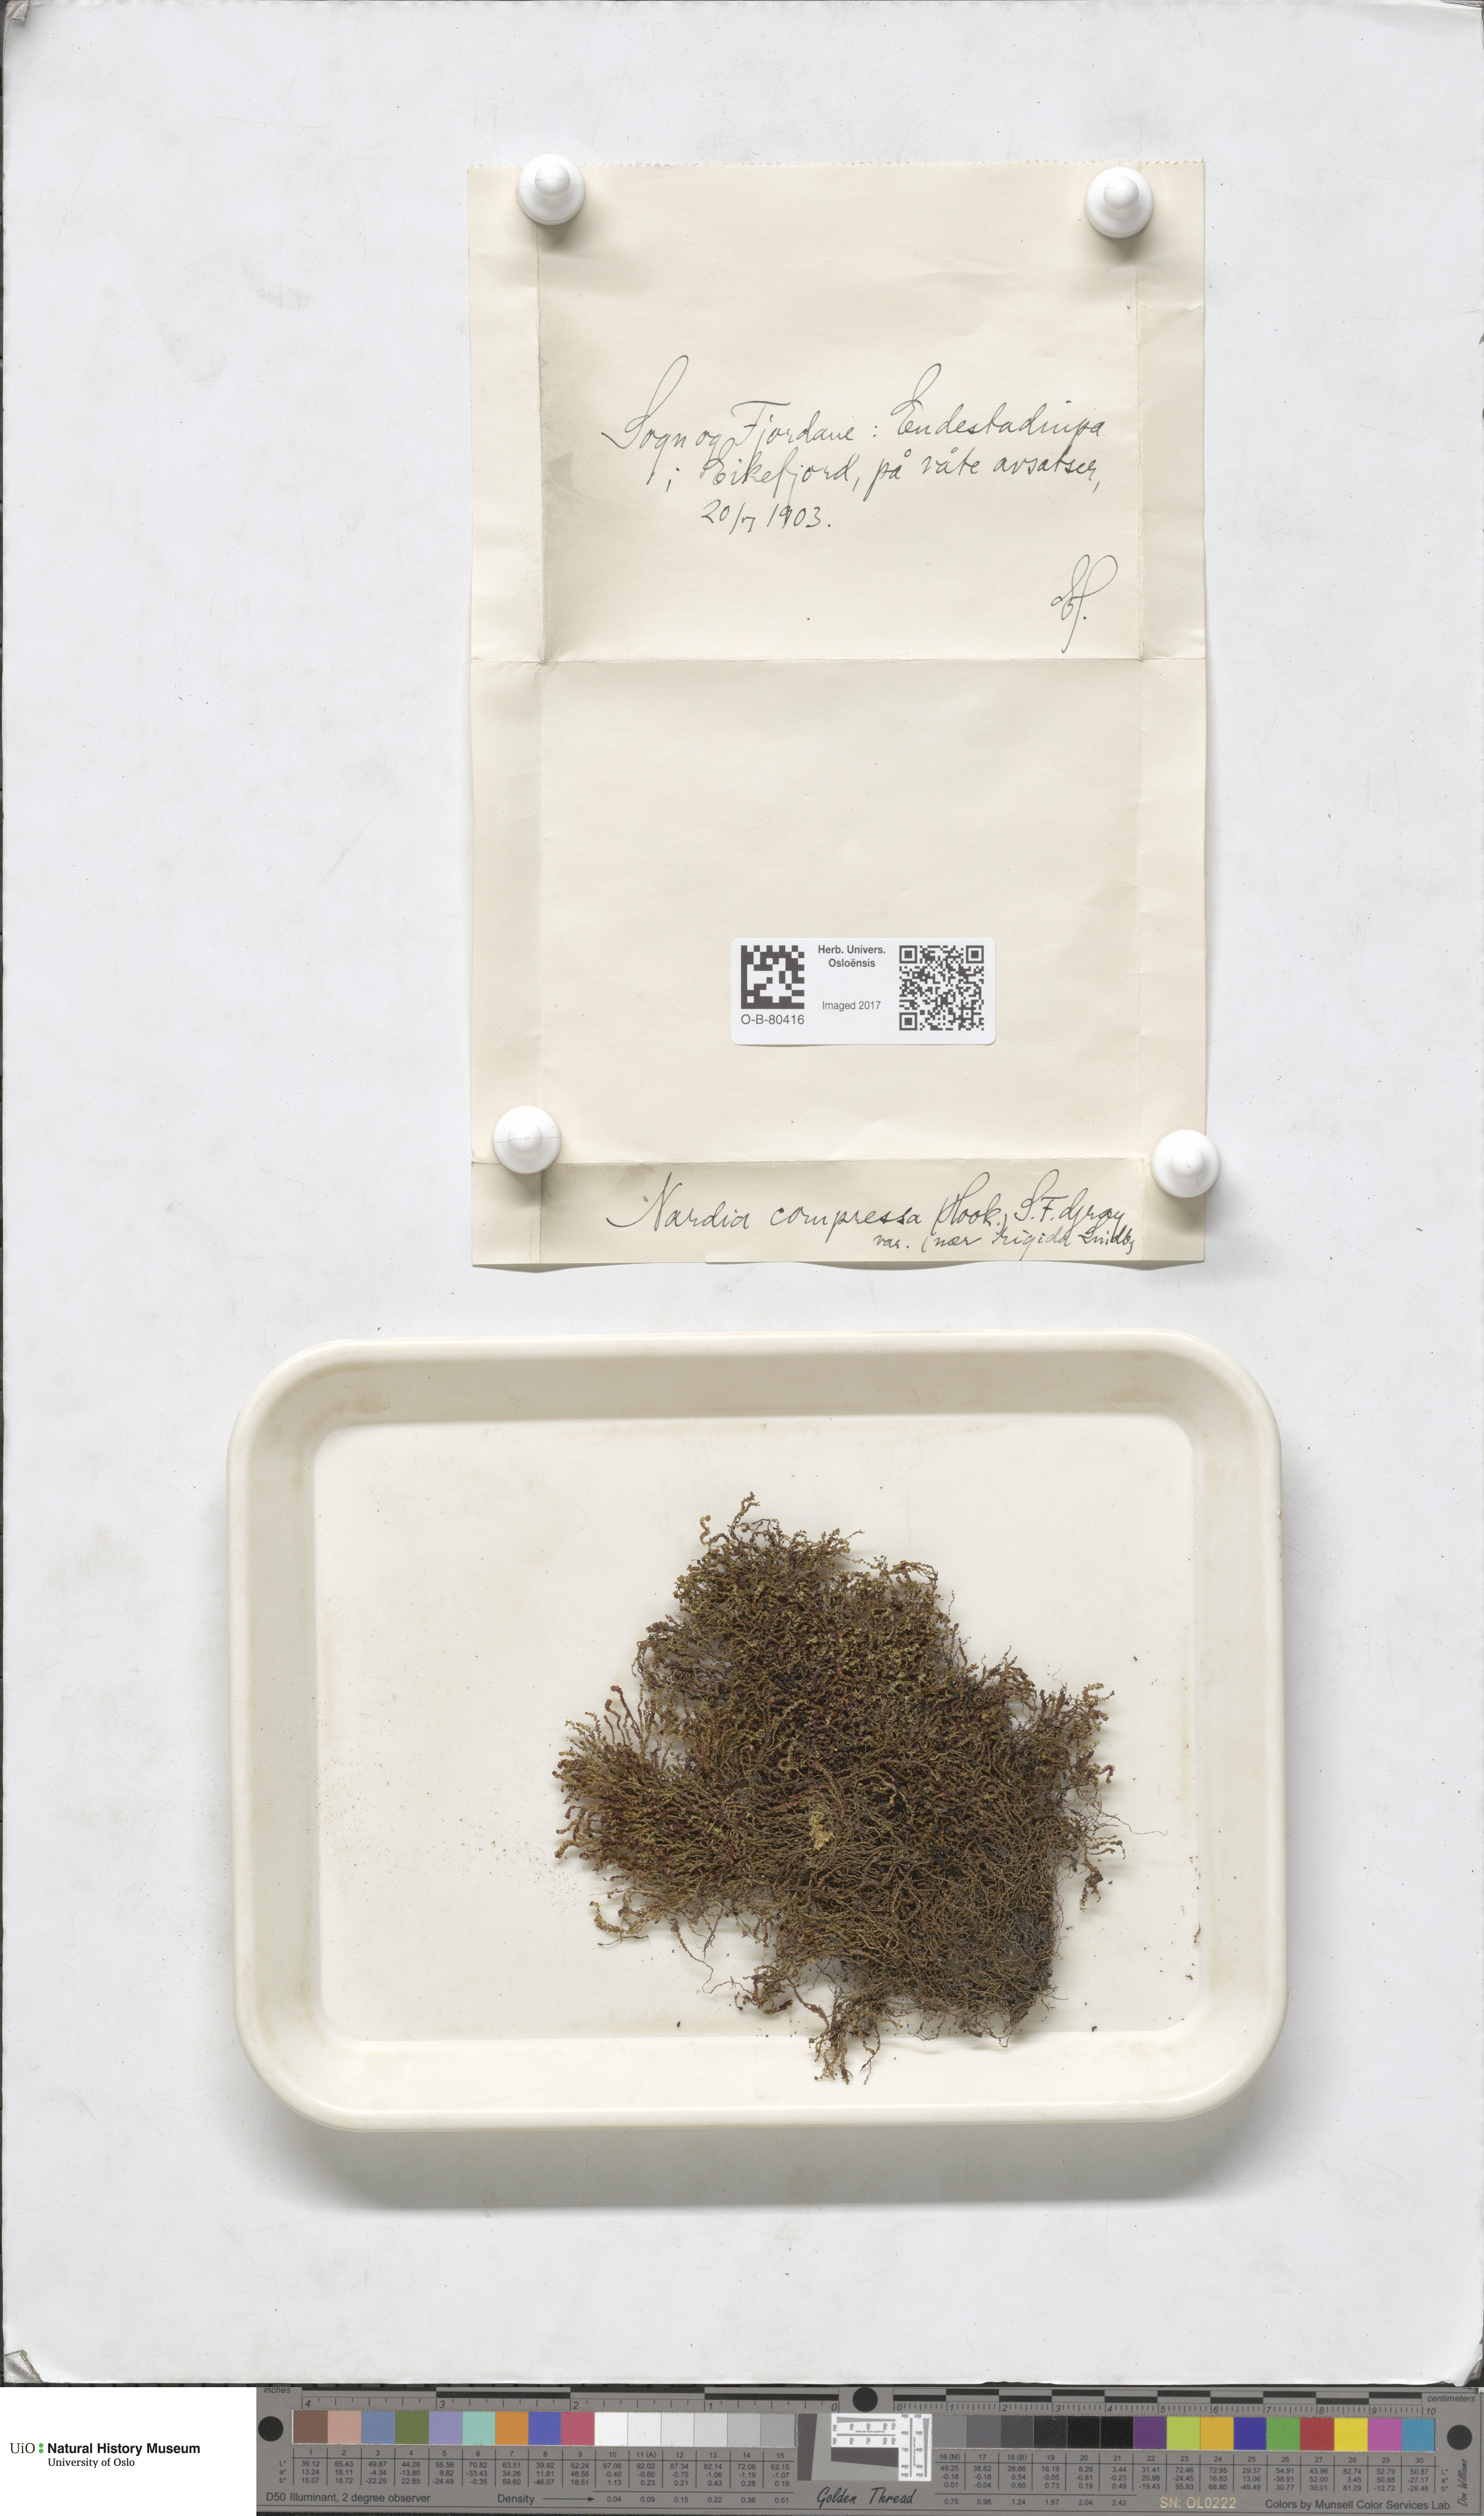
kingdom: Plantae
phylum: Marchantiophyta
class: Jungermanniopsida
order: Jungermanniales
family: Gymnomitriaceae
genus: Nardia
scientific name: Nardia compressa
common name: Compressed flapwort
